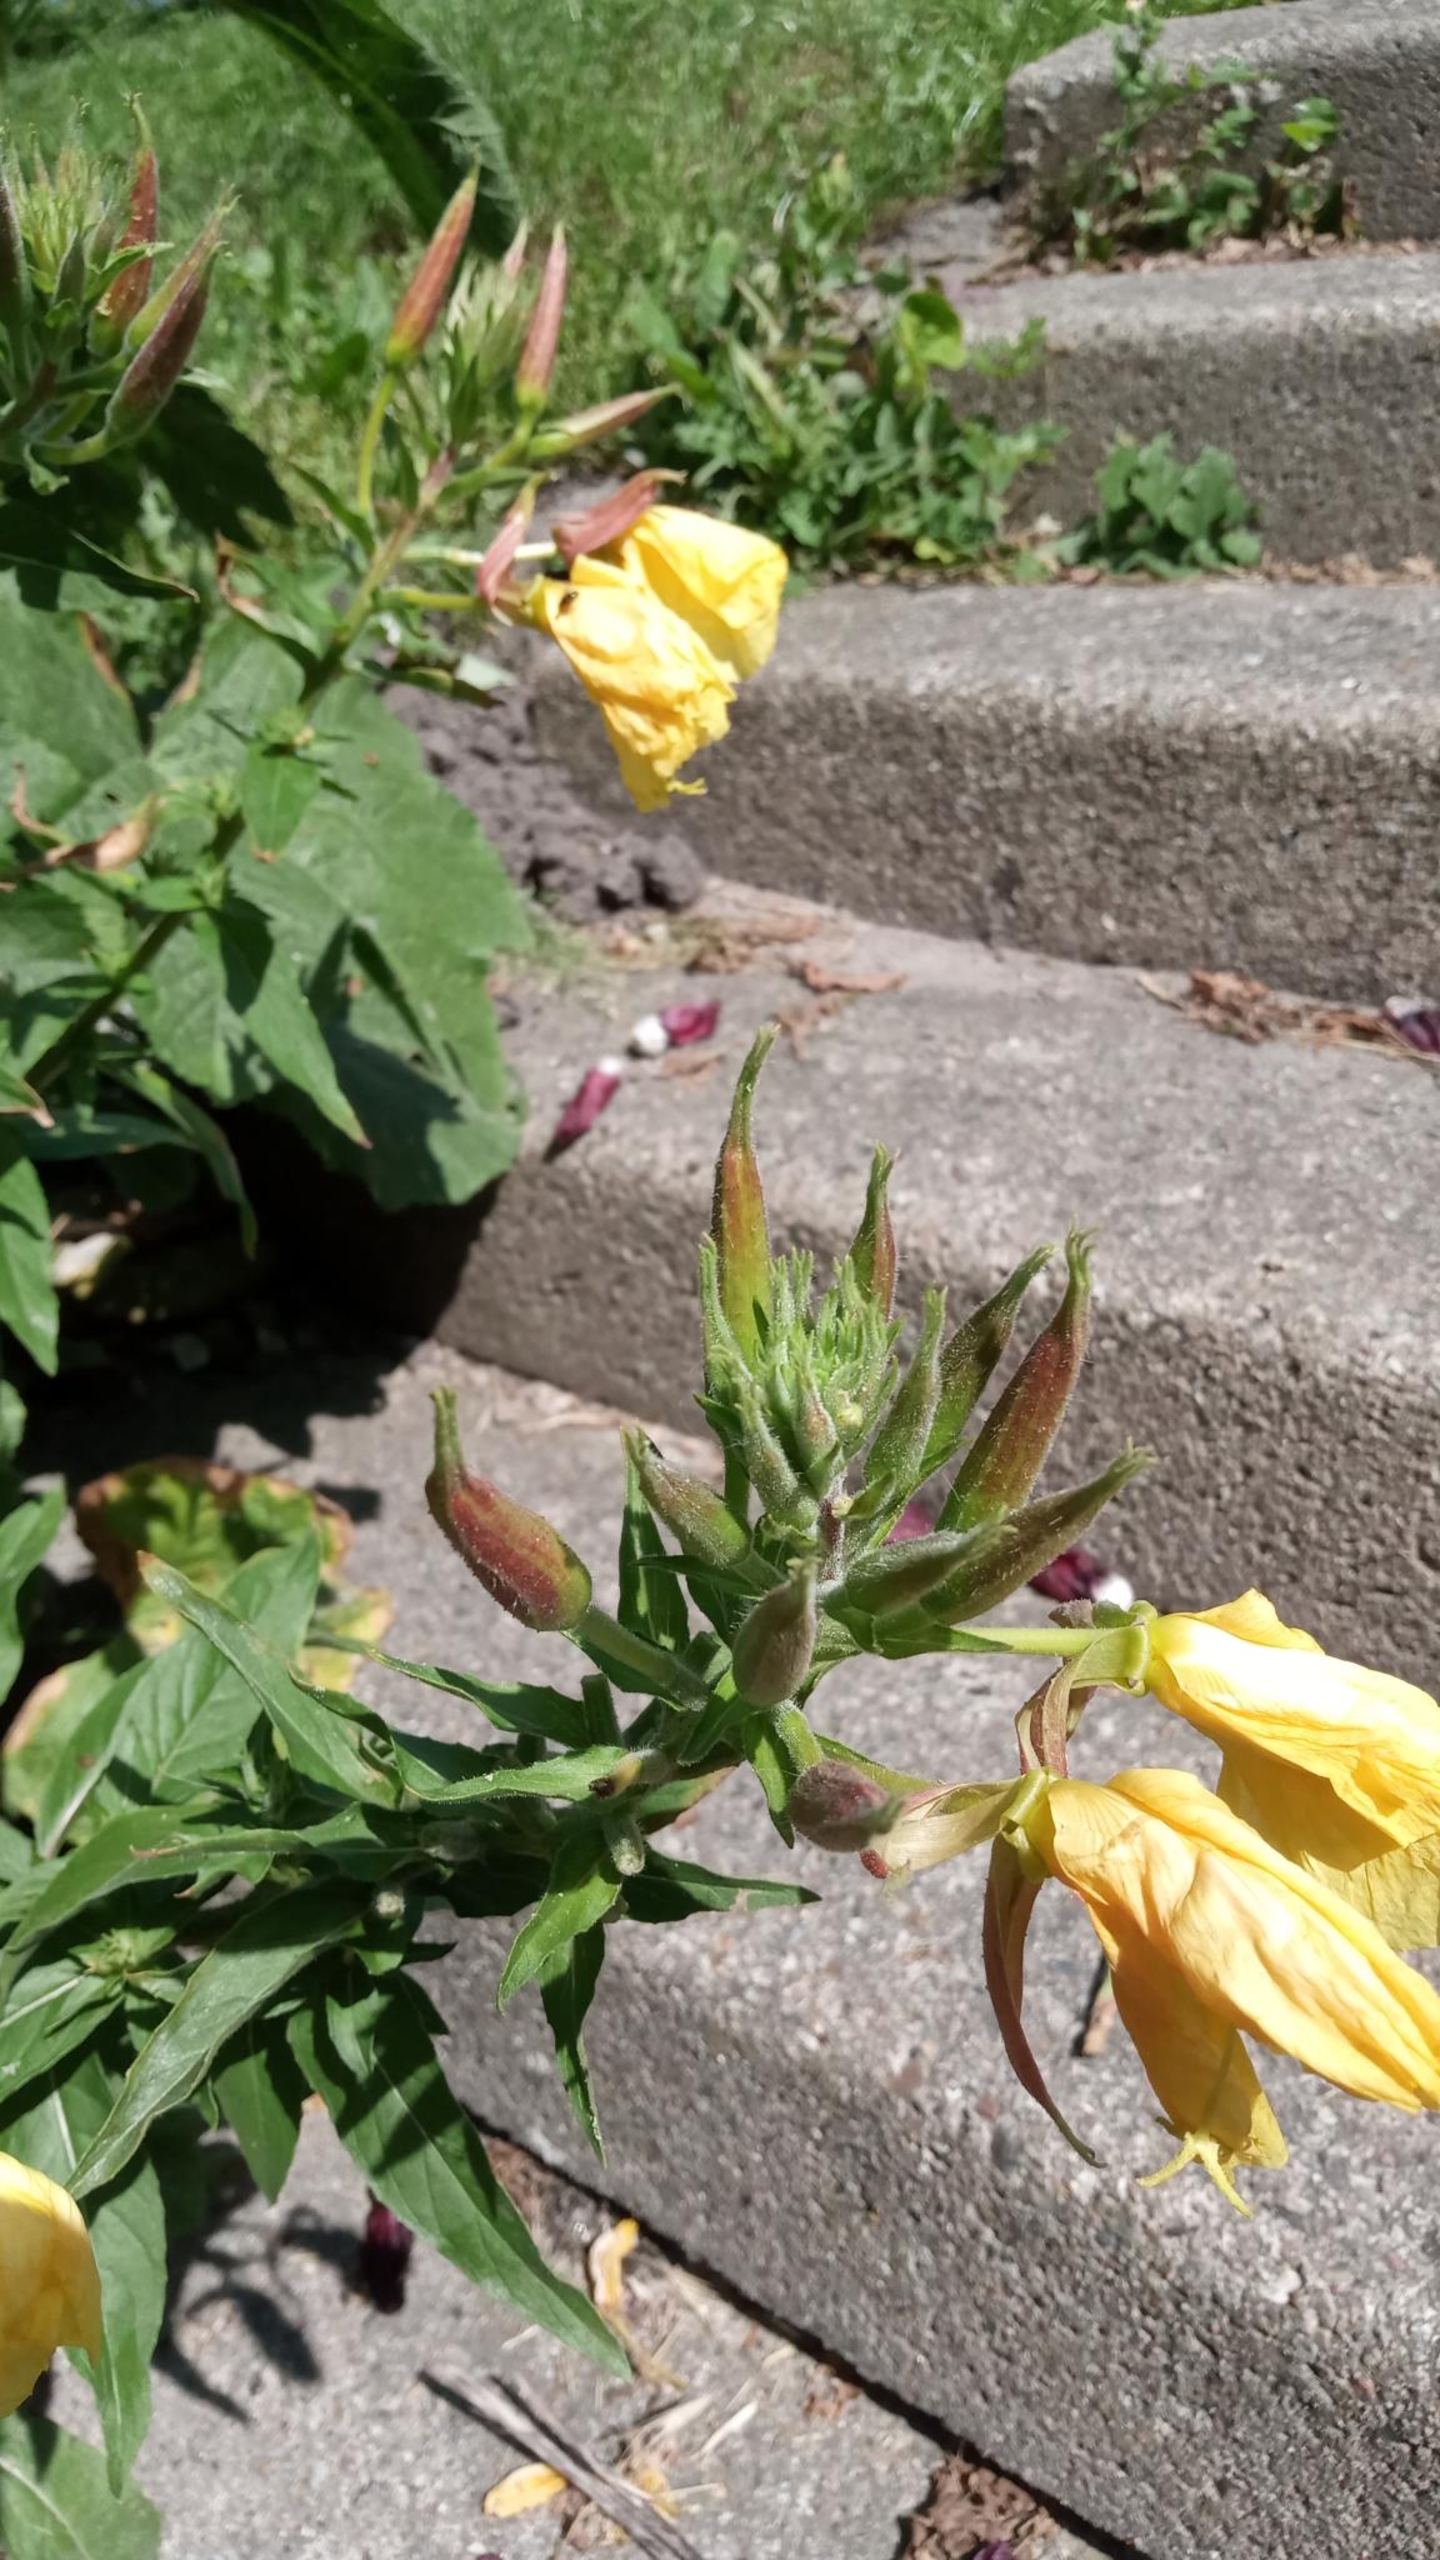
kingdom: Plantae
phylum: Tracheophyta
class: Magnoliopsida
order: Myrtales
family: Onagraceae
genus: Oenothera
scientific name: Oenothera glazioviana
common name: Kæmpe-natlys
